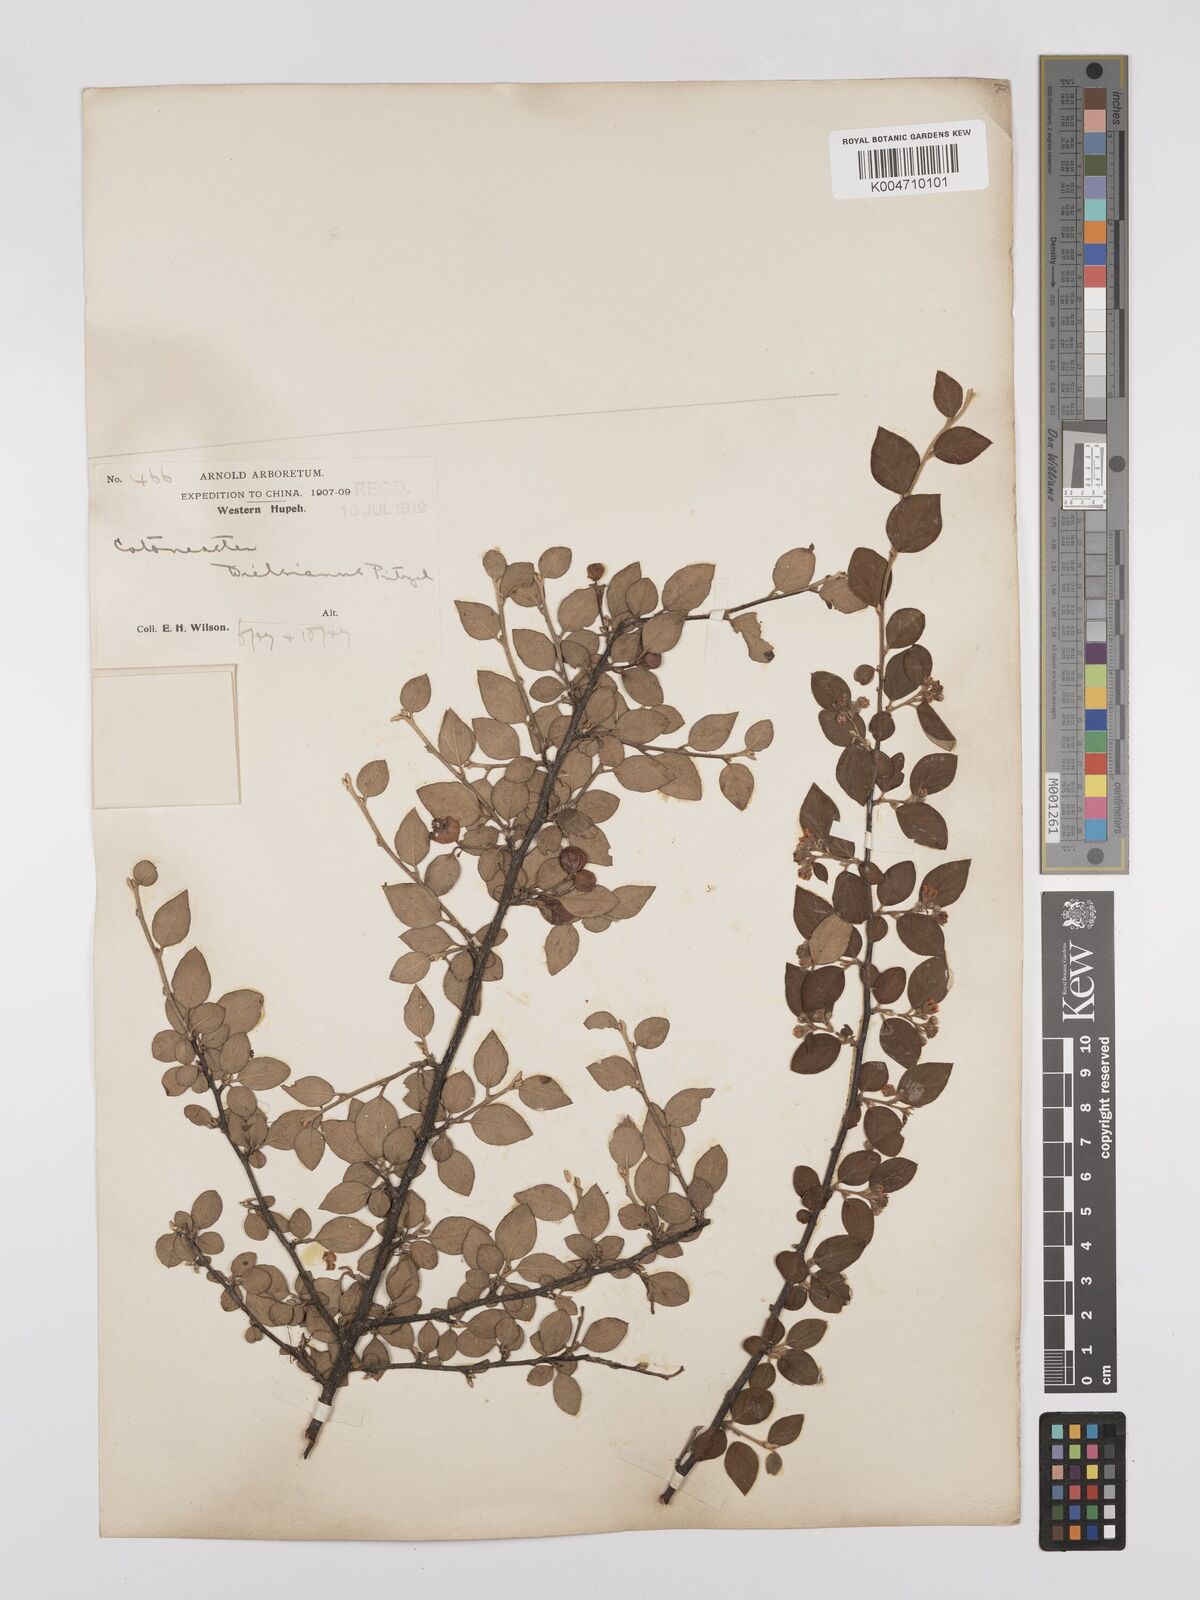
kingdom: Plantae
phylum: Tracheophyta
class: Magnoliopsida
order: Rosales
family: Rosaceae
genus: Cotoneaster
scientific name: Cotoneaster dielsianus
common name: Diels's cotoneaster
